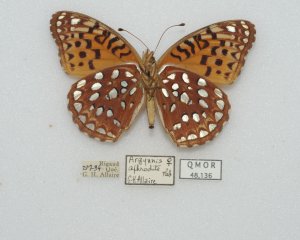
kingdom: Animalia
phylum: Arthropoda
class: Insecta
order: Lepidoptera
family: Nymphalidae
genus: Speyeria
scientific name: Speyeria aphrodite
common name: Aphrodite Fritillary
